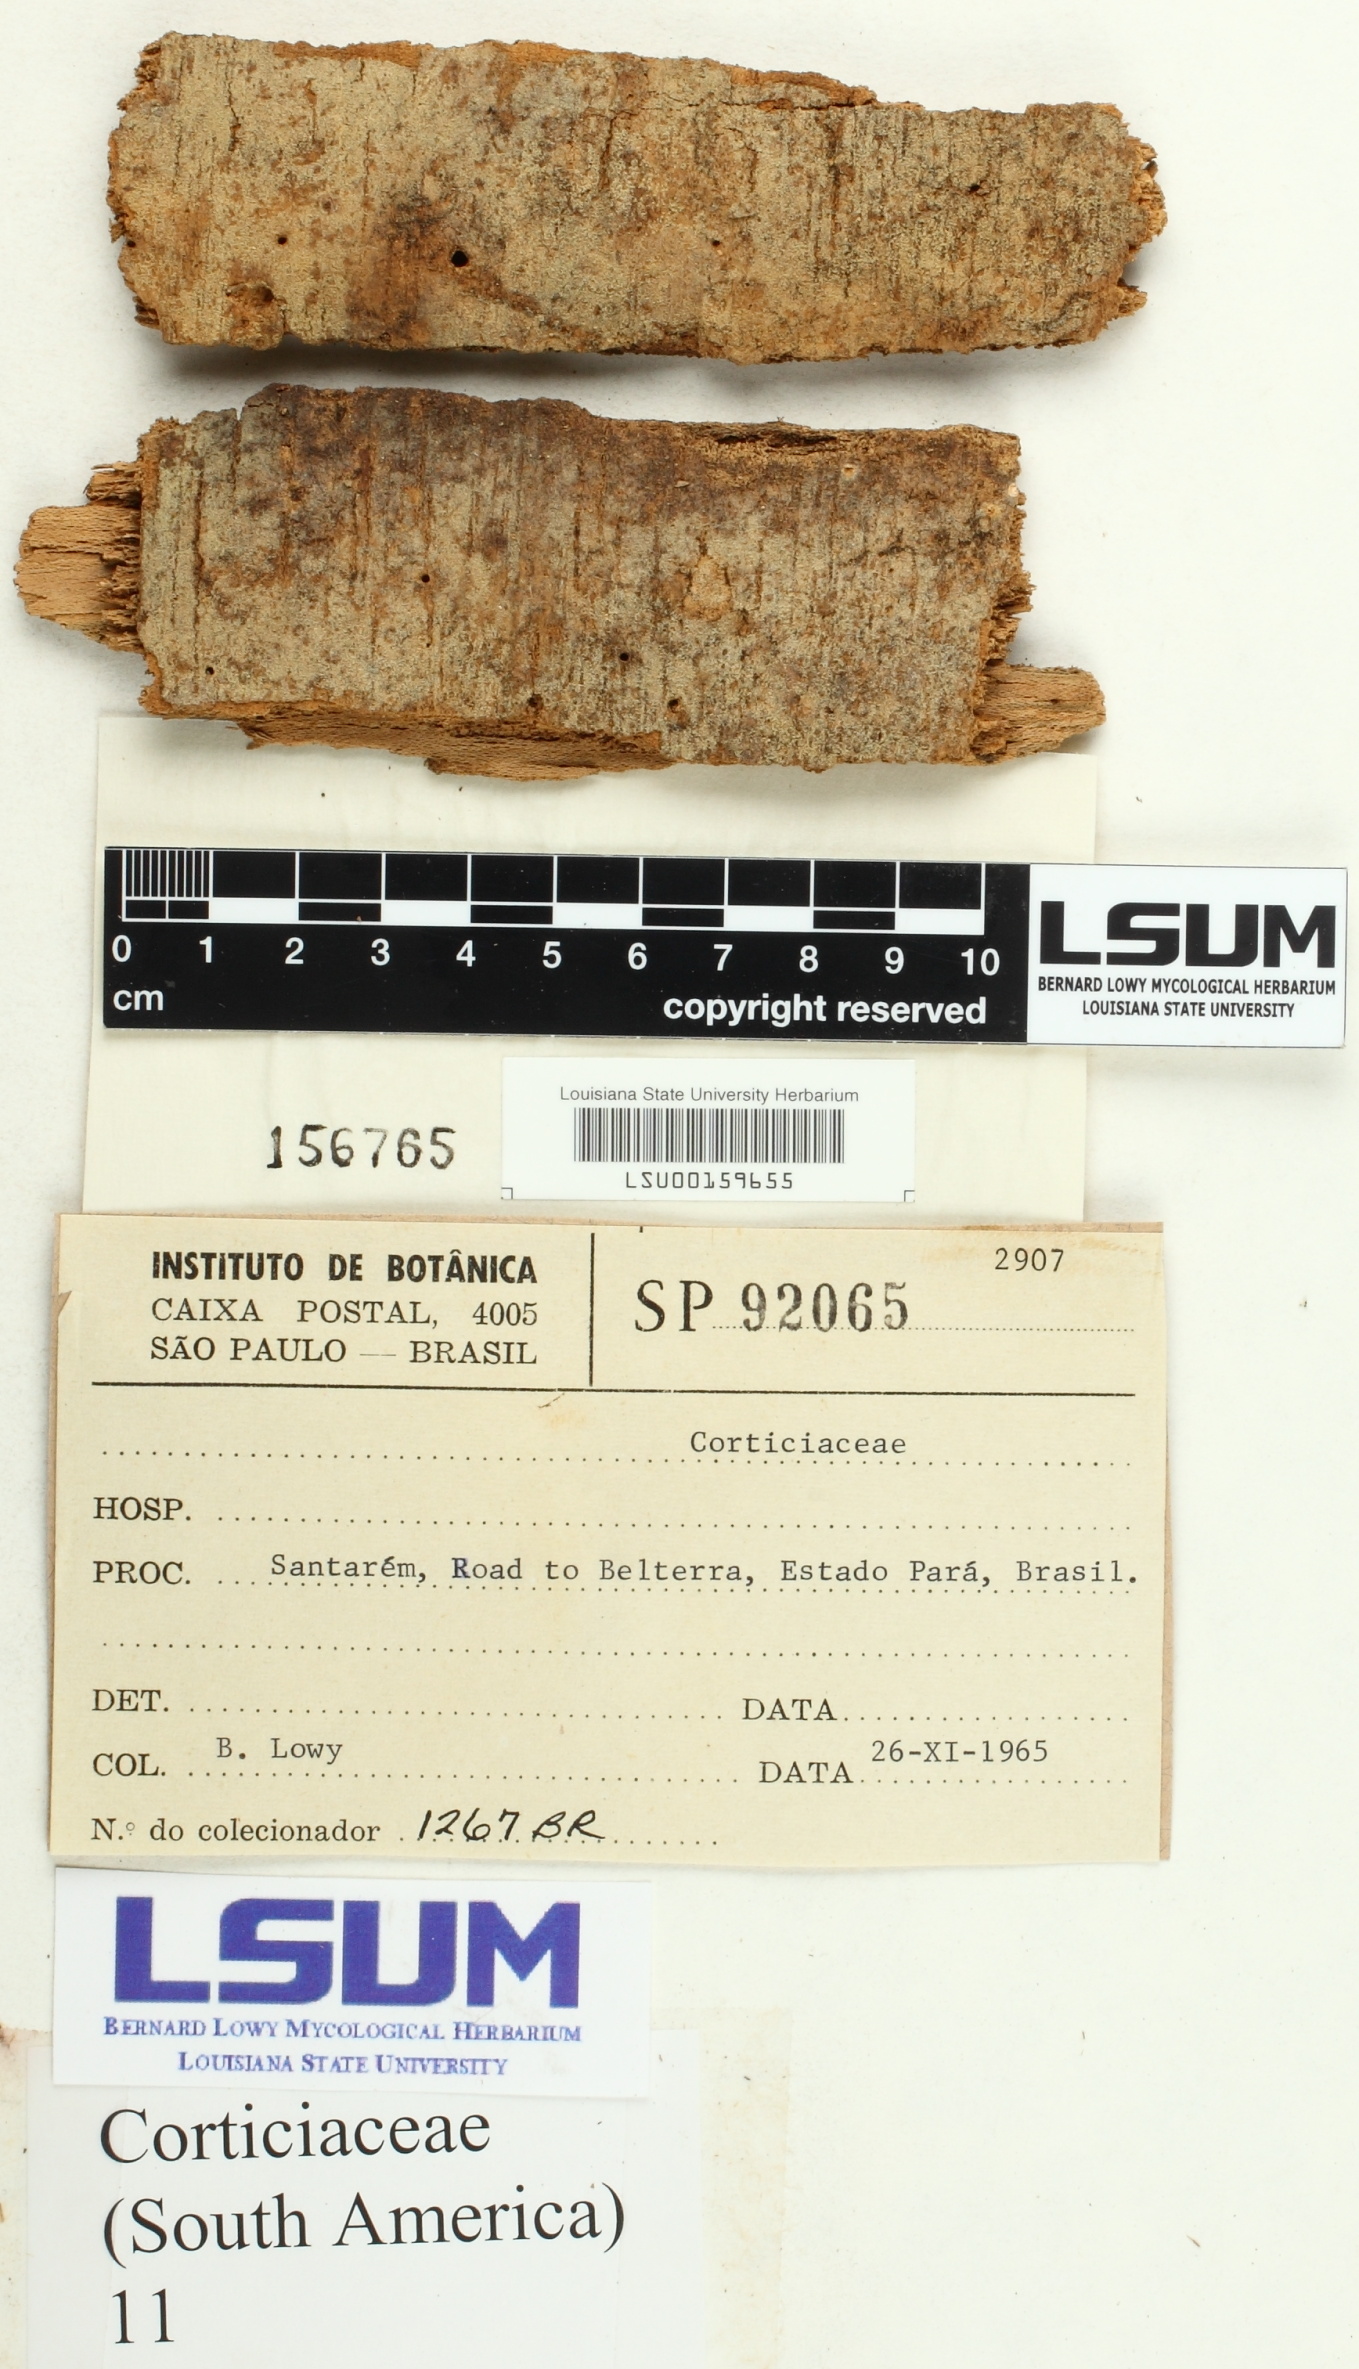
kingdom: Fungi
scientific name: Fungi
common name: Fungi
